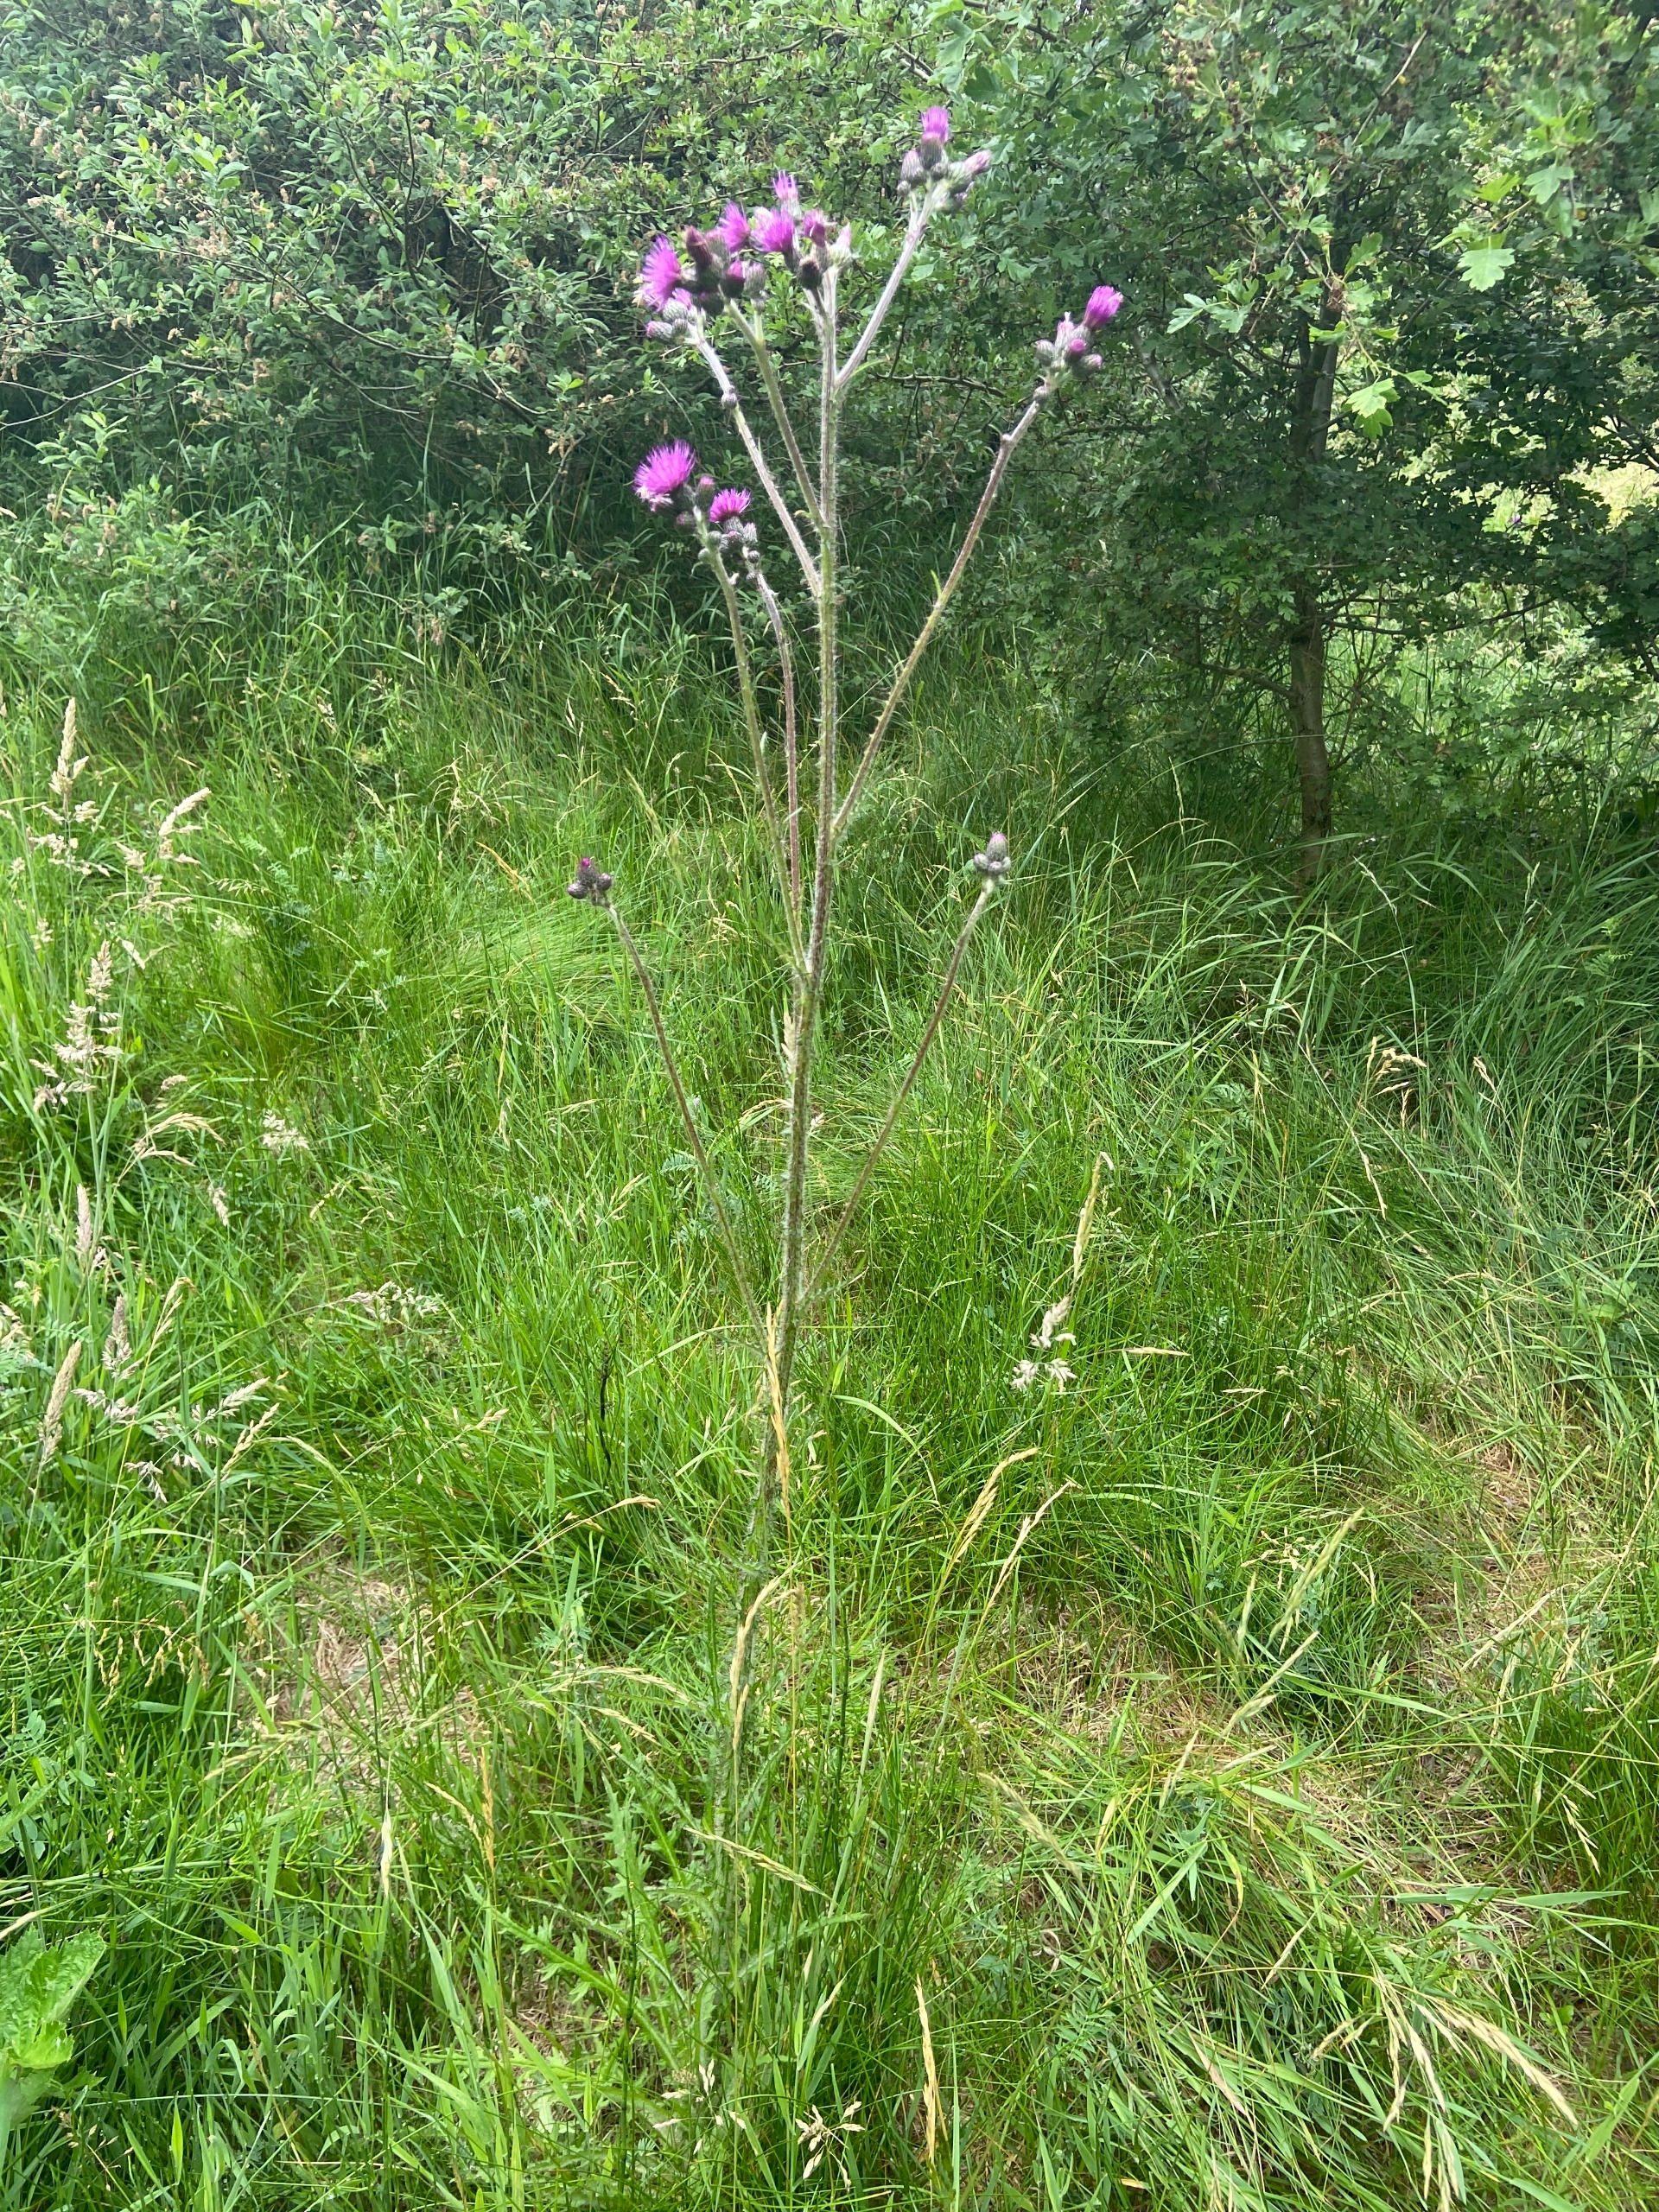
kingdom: Plantae
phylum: Tracheophyta
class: Magnoliopsida
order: Asterales
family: Asteraceae
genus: Cirsium
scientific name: Cirsium palustre
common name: Kær-tidsel
